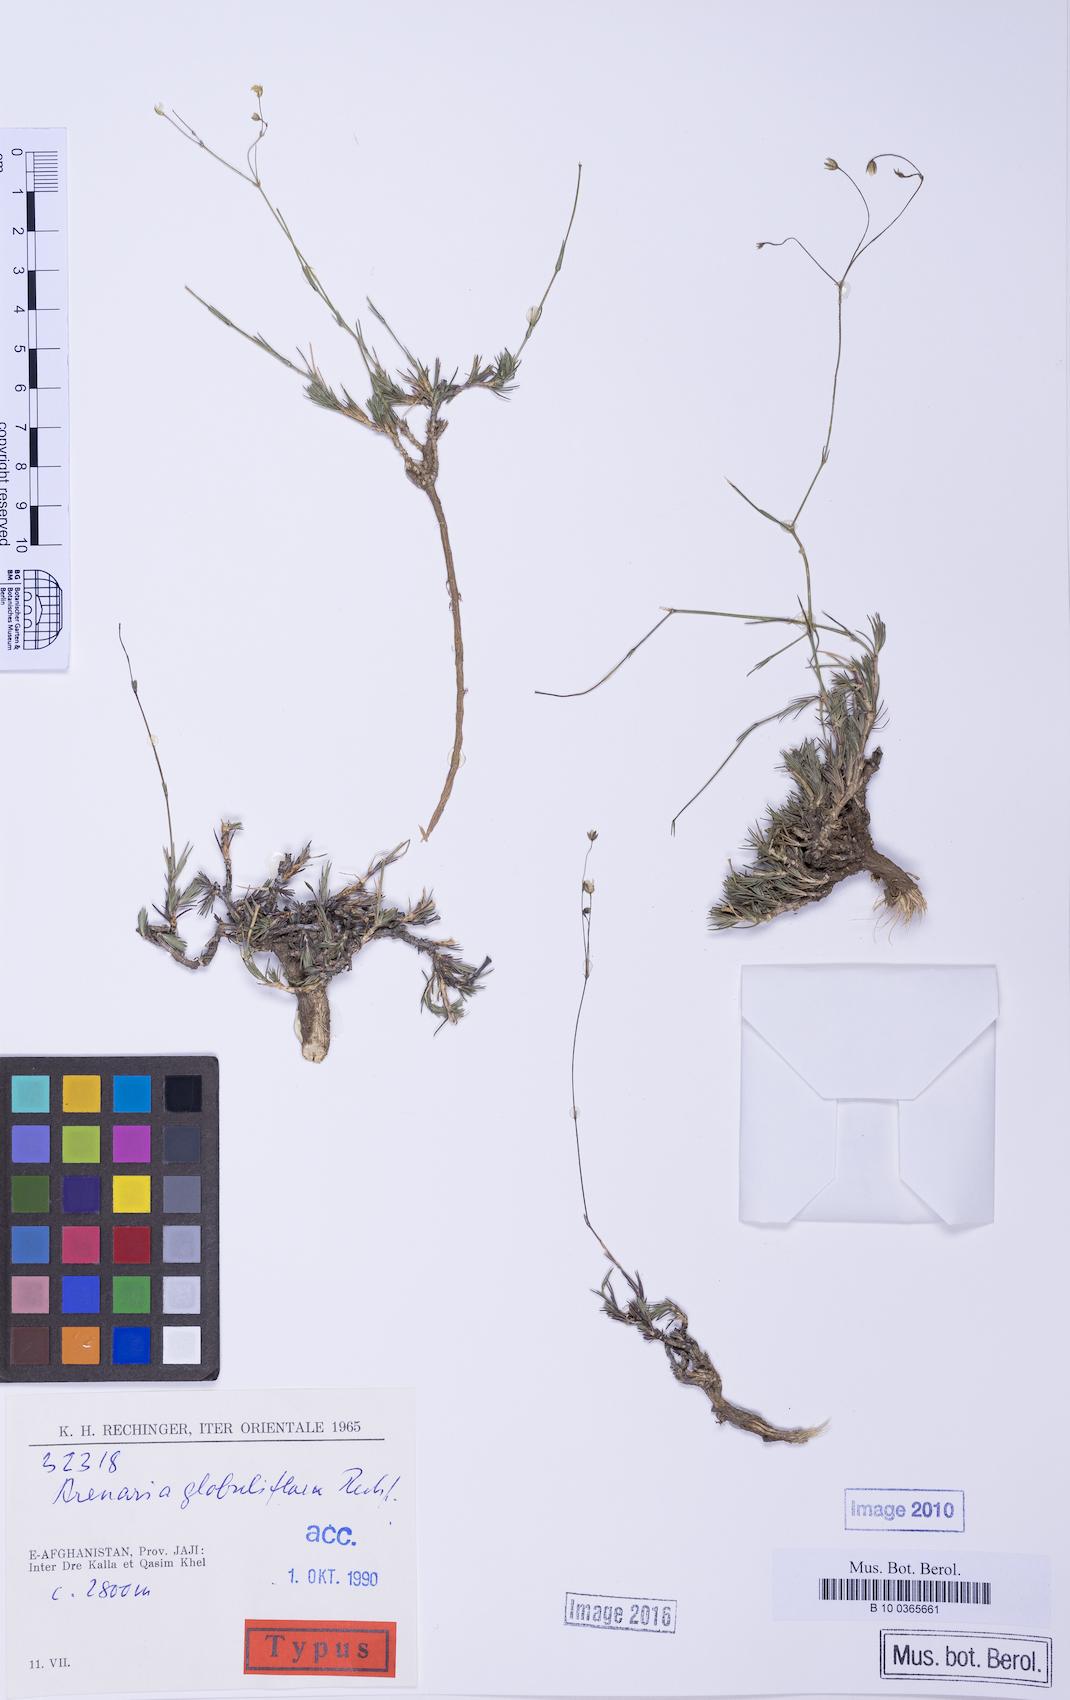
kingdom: Plantae
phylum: Tracheophyta
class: Magnoliopsida
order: Caryophyllales
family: Caryophyllaceae
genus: Eremogone
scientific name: Eremogone globuliflora
